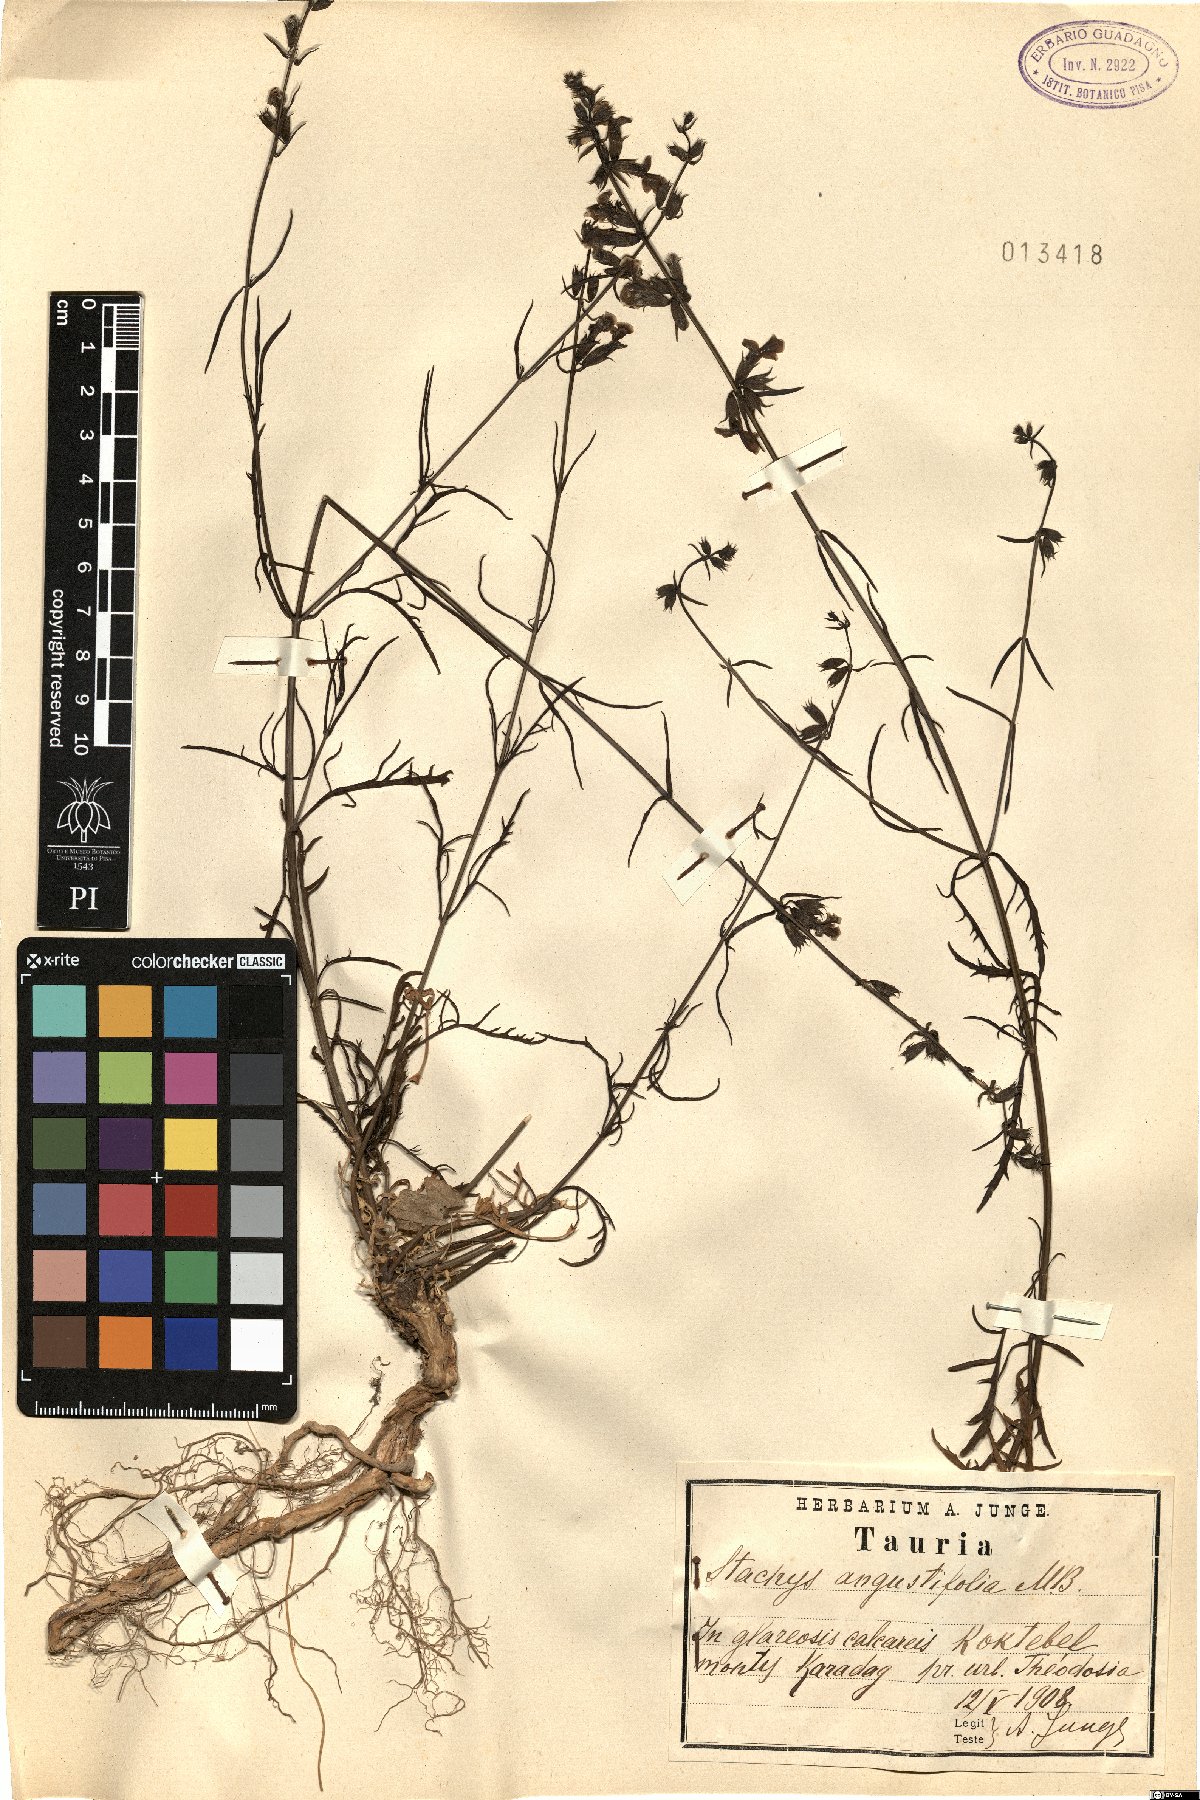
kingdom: Plantae
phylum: Tracheophyta
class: Magnoliopsida
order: Lamiales
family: Lamiaceae
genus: Stachys
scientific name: Stachys angustifolia
